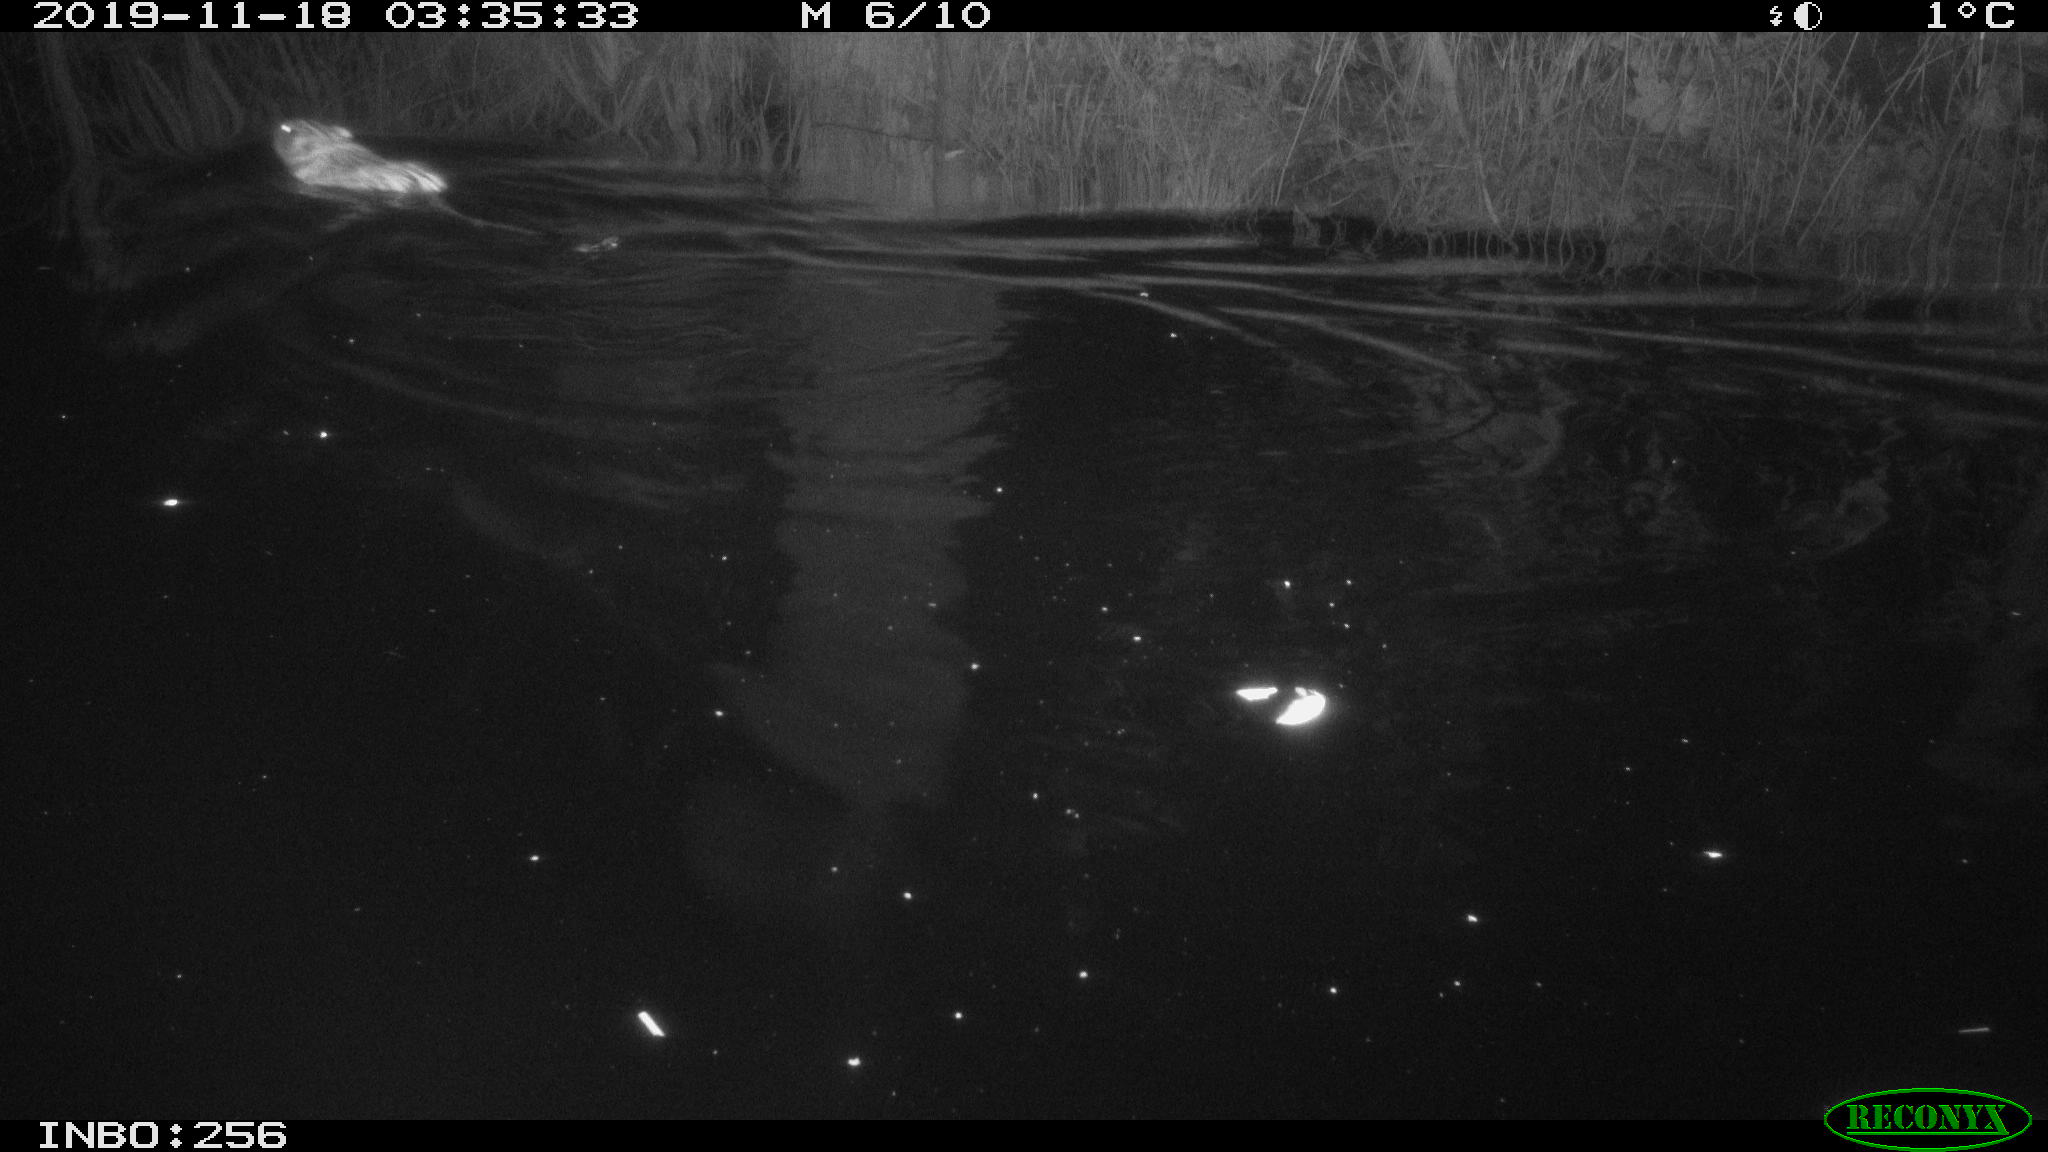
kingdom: Animalia
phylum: Chordata
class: Mammalia
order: Rodentia
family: Cricetidae
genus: Ondatra
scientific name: Ondatra zibethicus
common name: Muskrat
